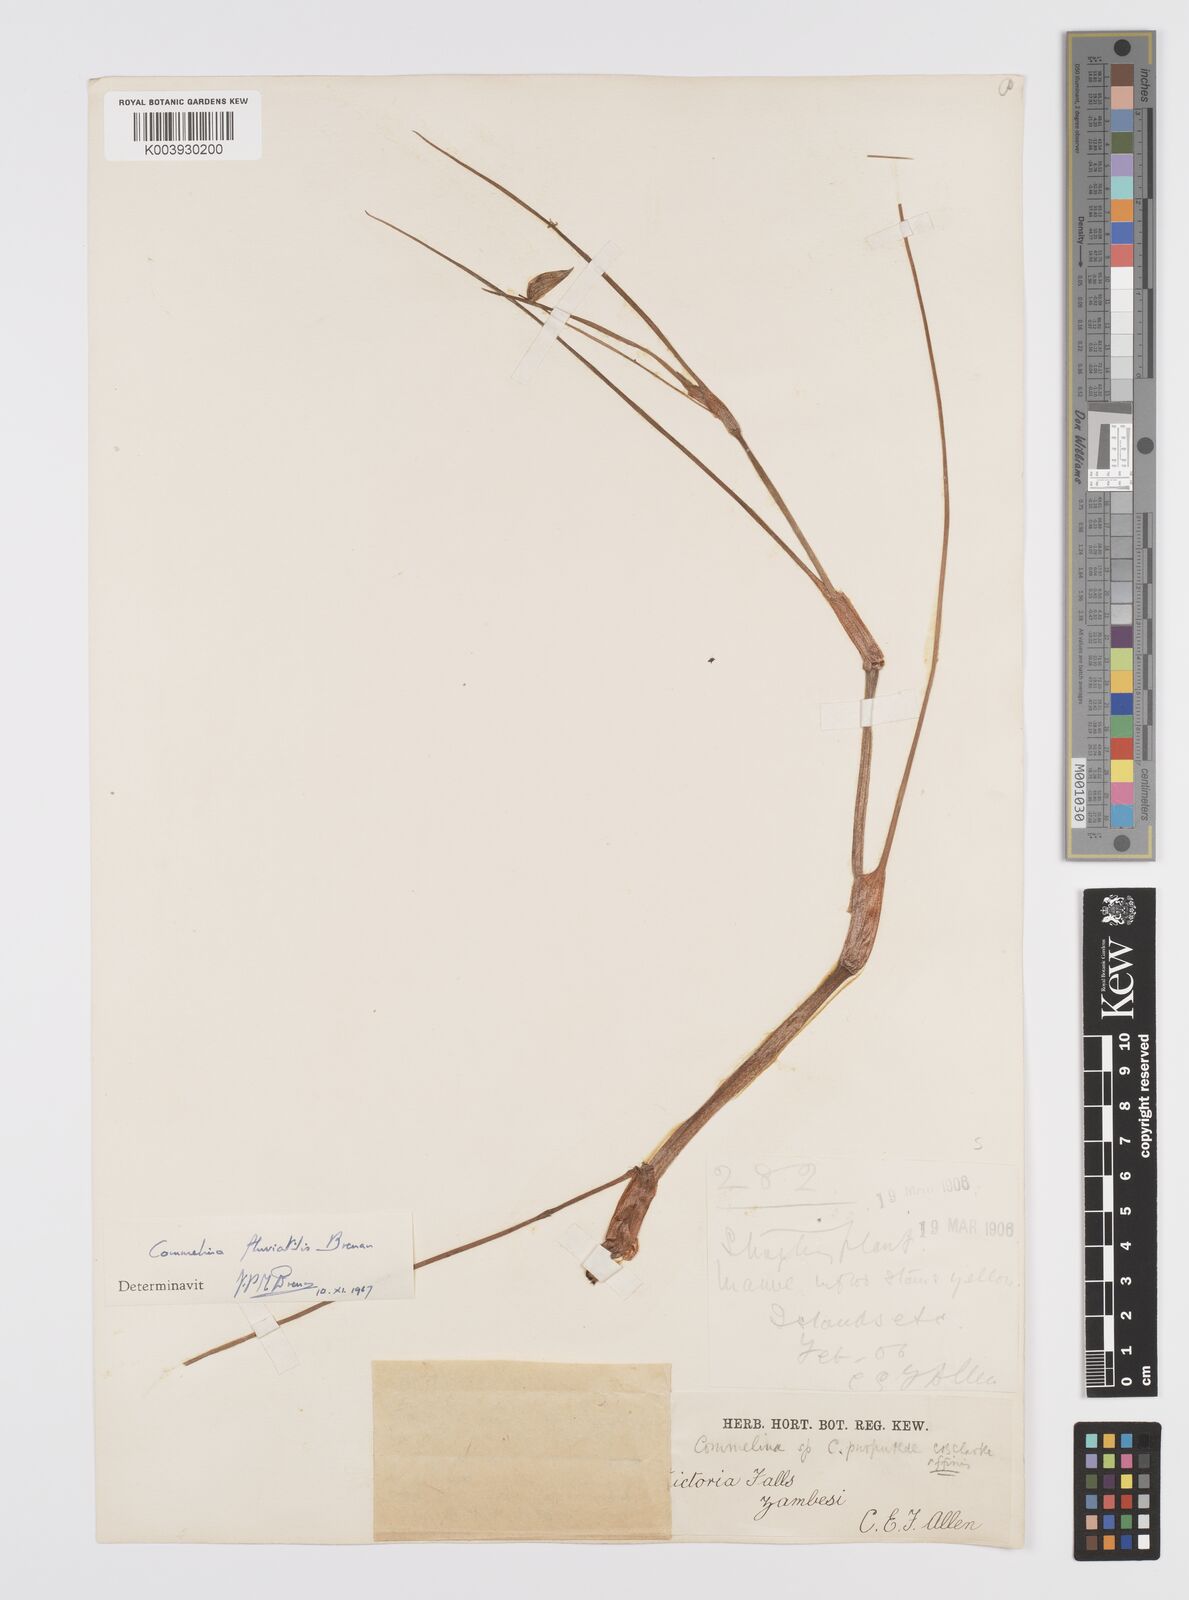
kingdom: Plantae
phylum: Tracheophyta
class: Liliopsida
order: Commelinales
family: Commelinaceae
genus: Commelina
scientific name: Commelina fluviatilis
